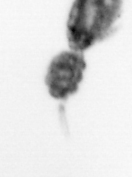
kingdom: Animalia
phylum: Arthropoda
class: Copepoda
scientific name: Copepoda
